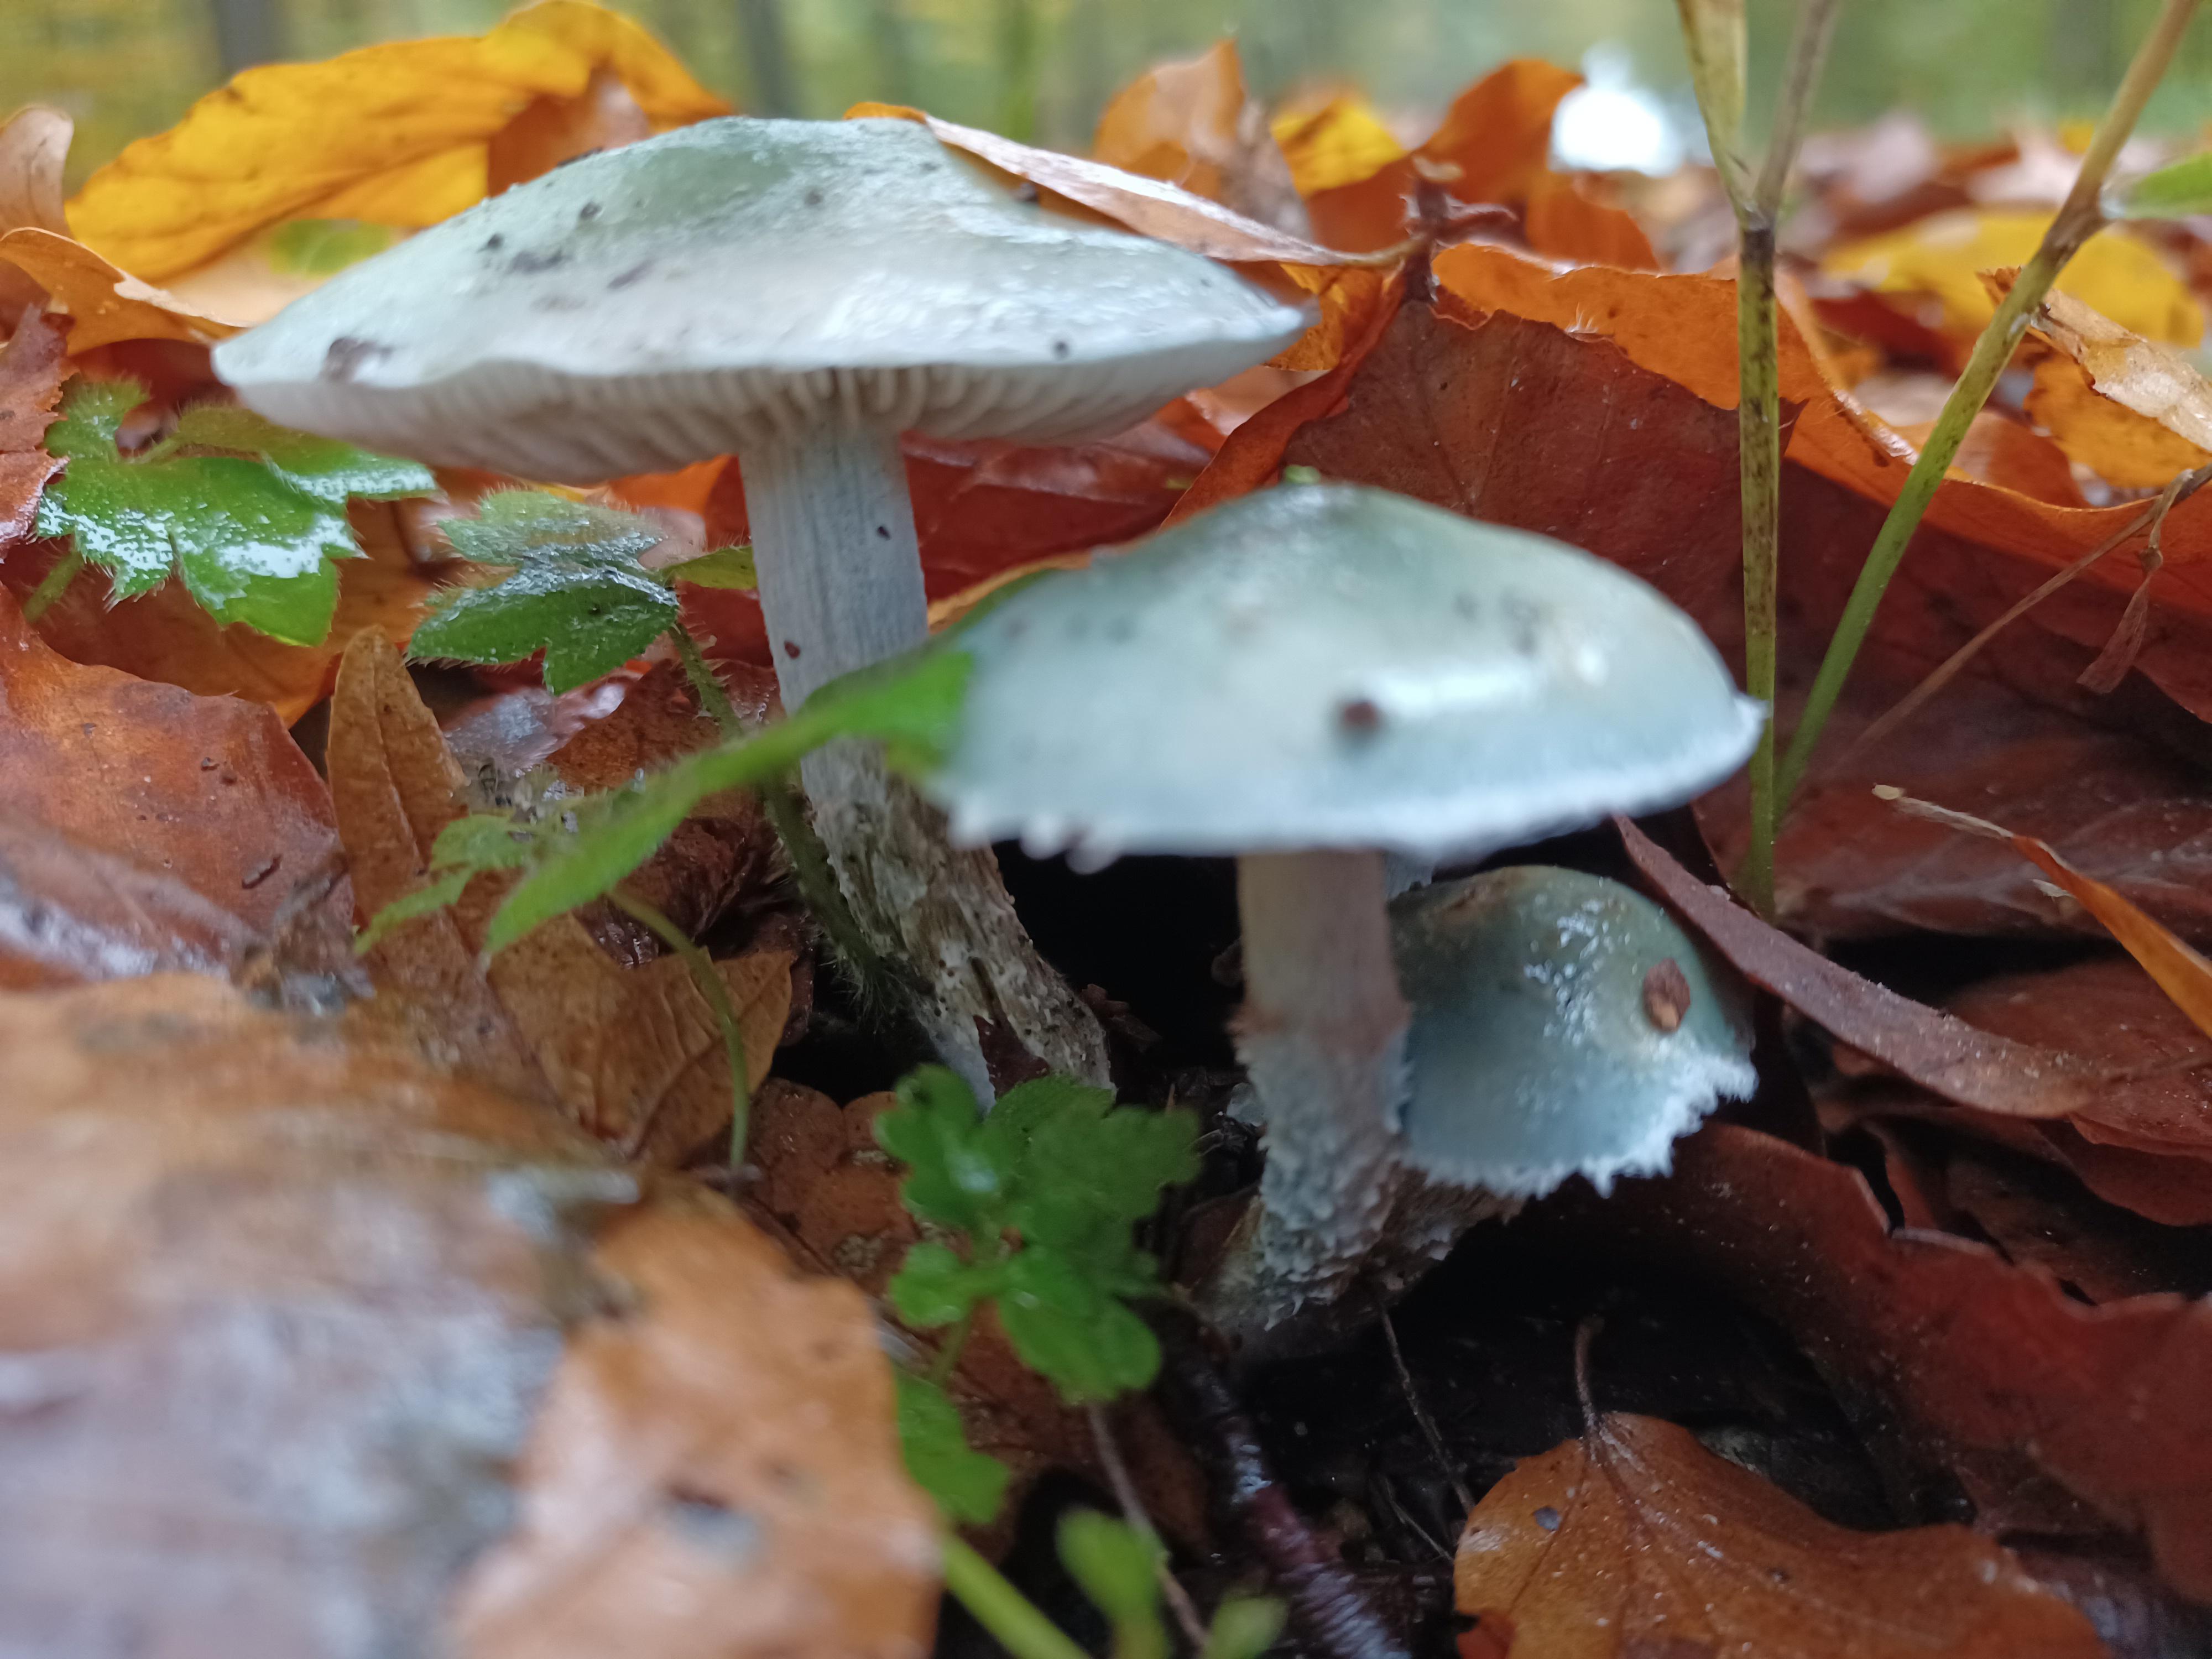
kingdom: Fungi
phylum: Basidiomycota
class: Agaricomycetes
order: Agaricales
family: Strophariaceae
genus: Stropharia
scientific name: Stropharia cyanea
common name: blågrøn bredblad
